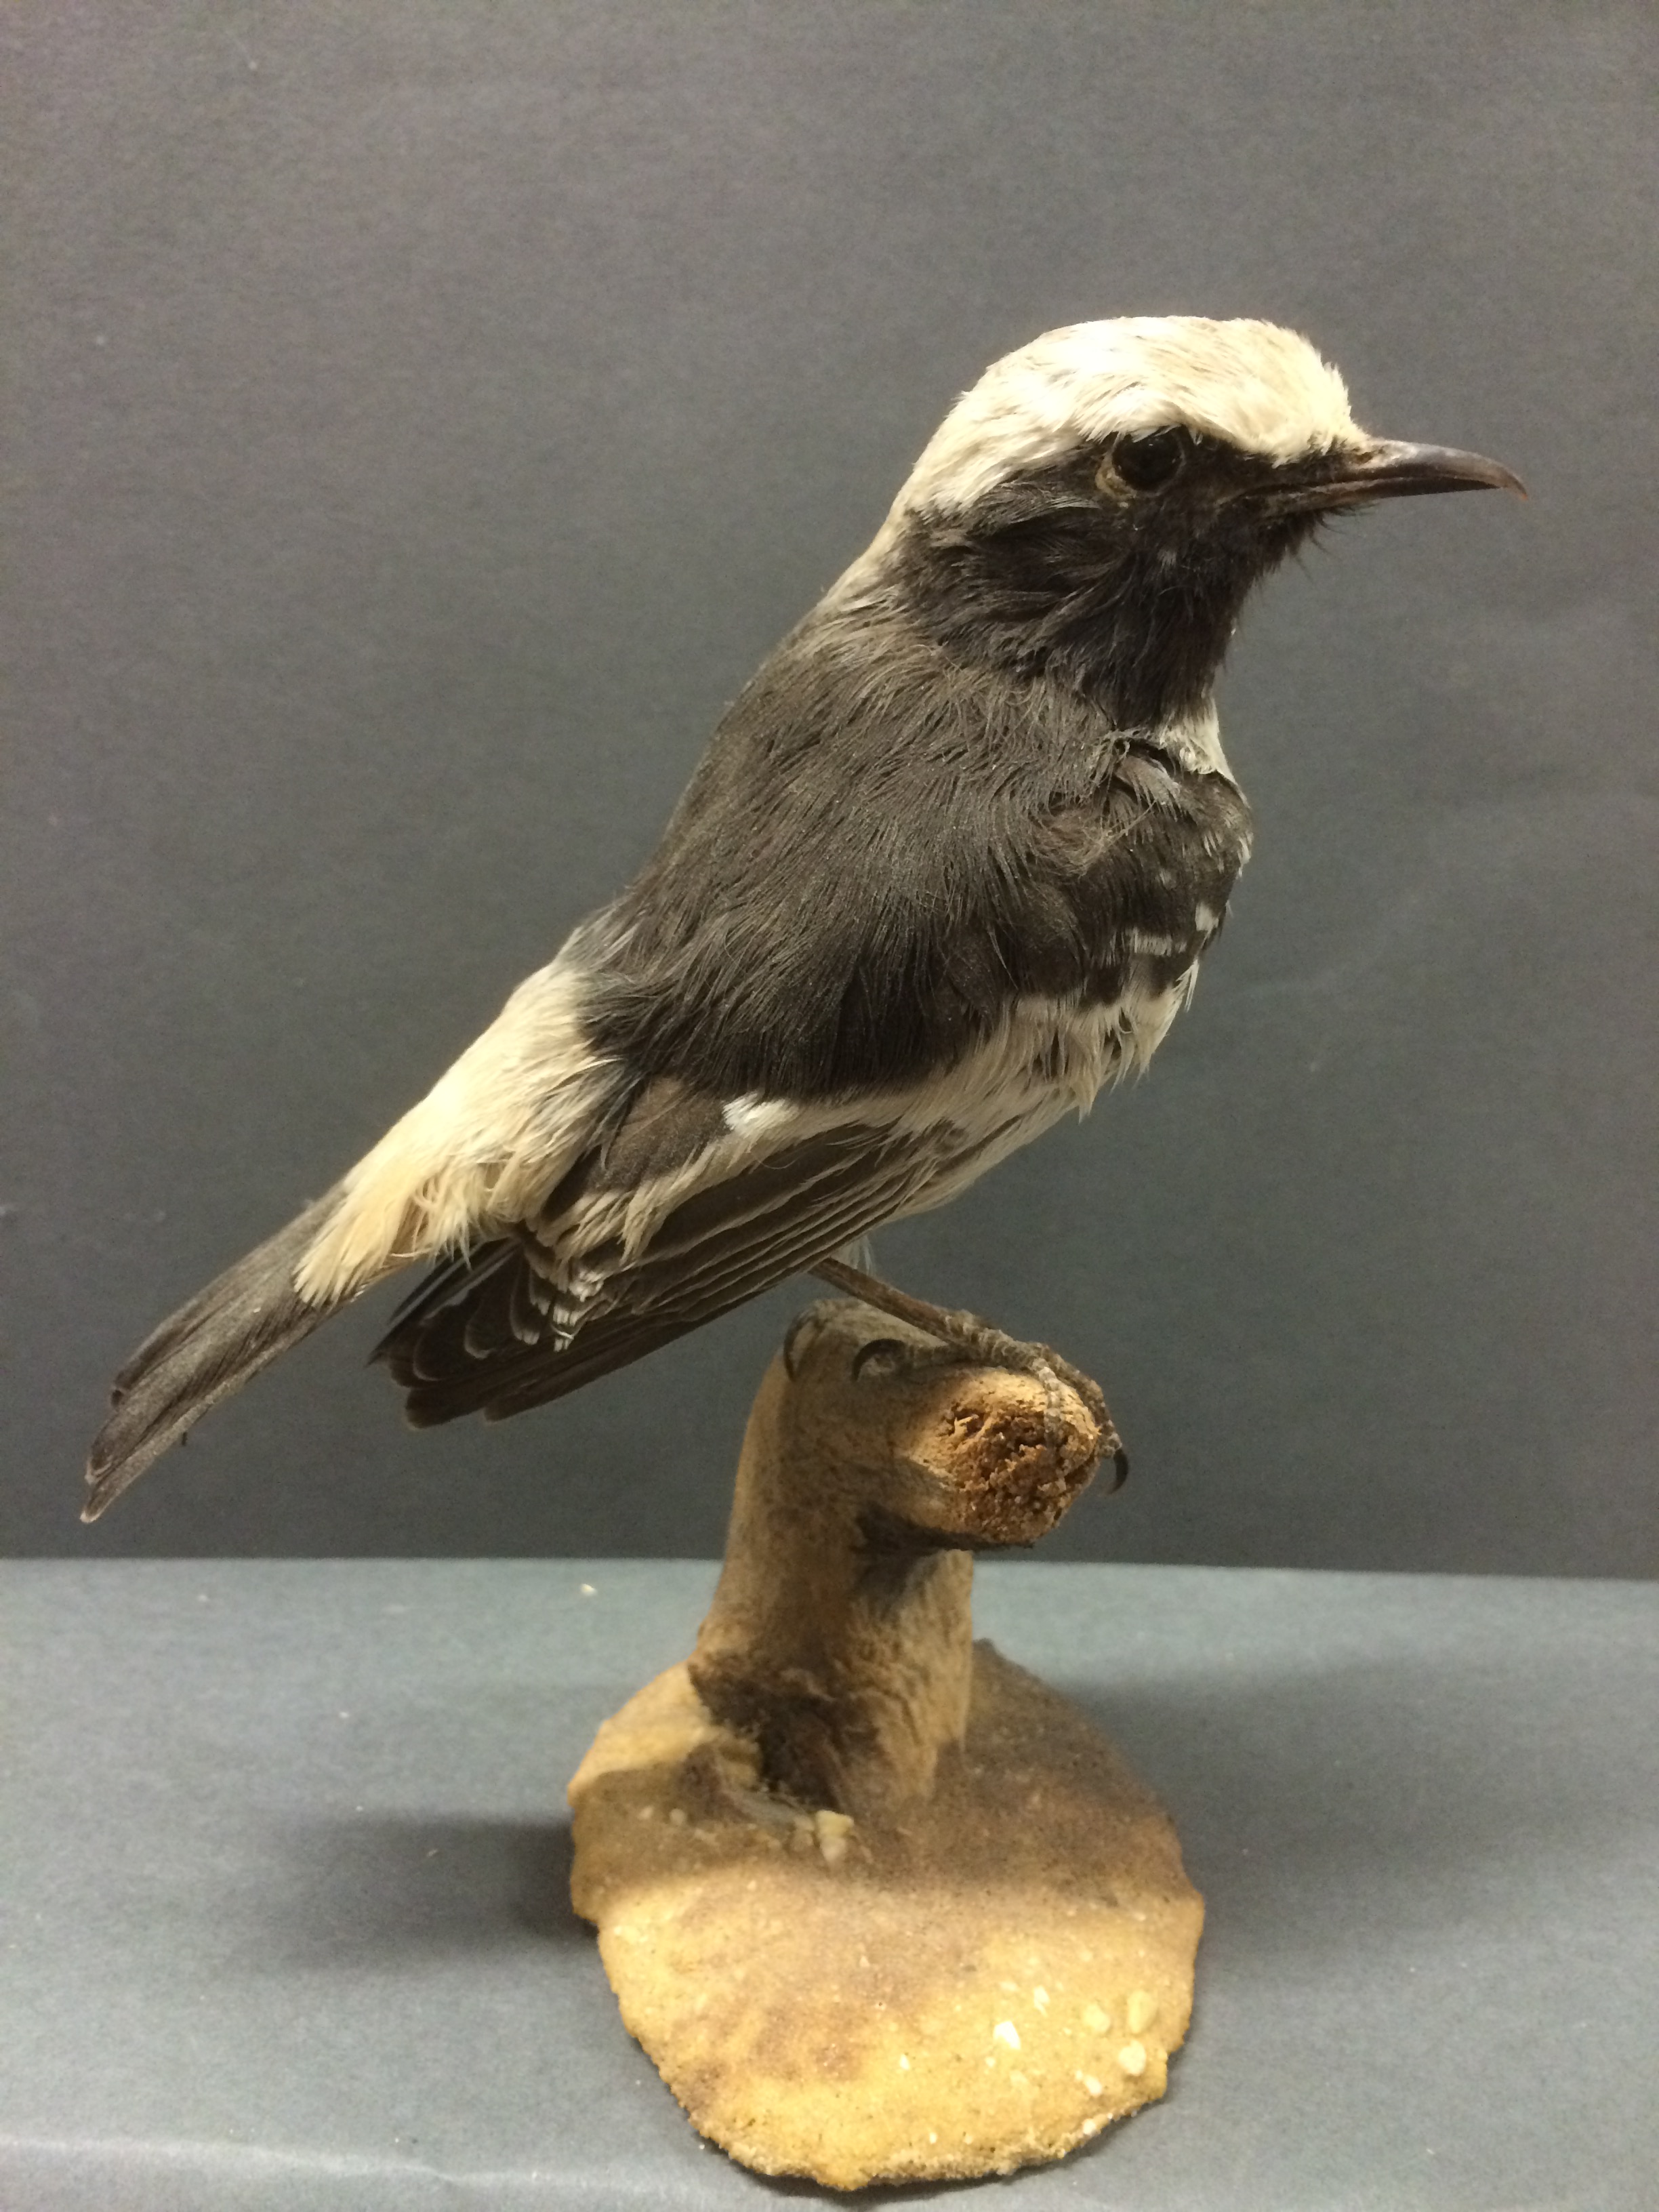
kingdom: Animalia
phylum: Chordata
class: Aves
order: Passeriformes
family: Muscicapidae
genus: Oenanthe
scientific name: Oenanthe moesta
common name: Red-rumped wheatear
